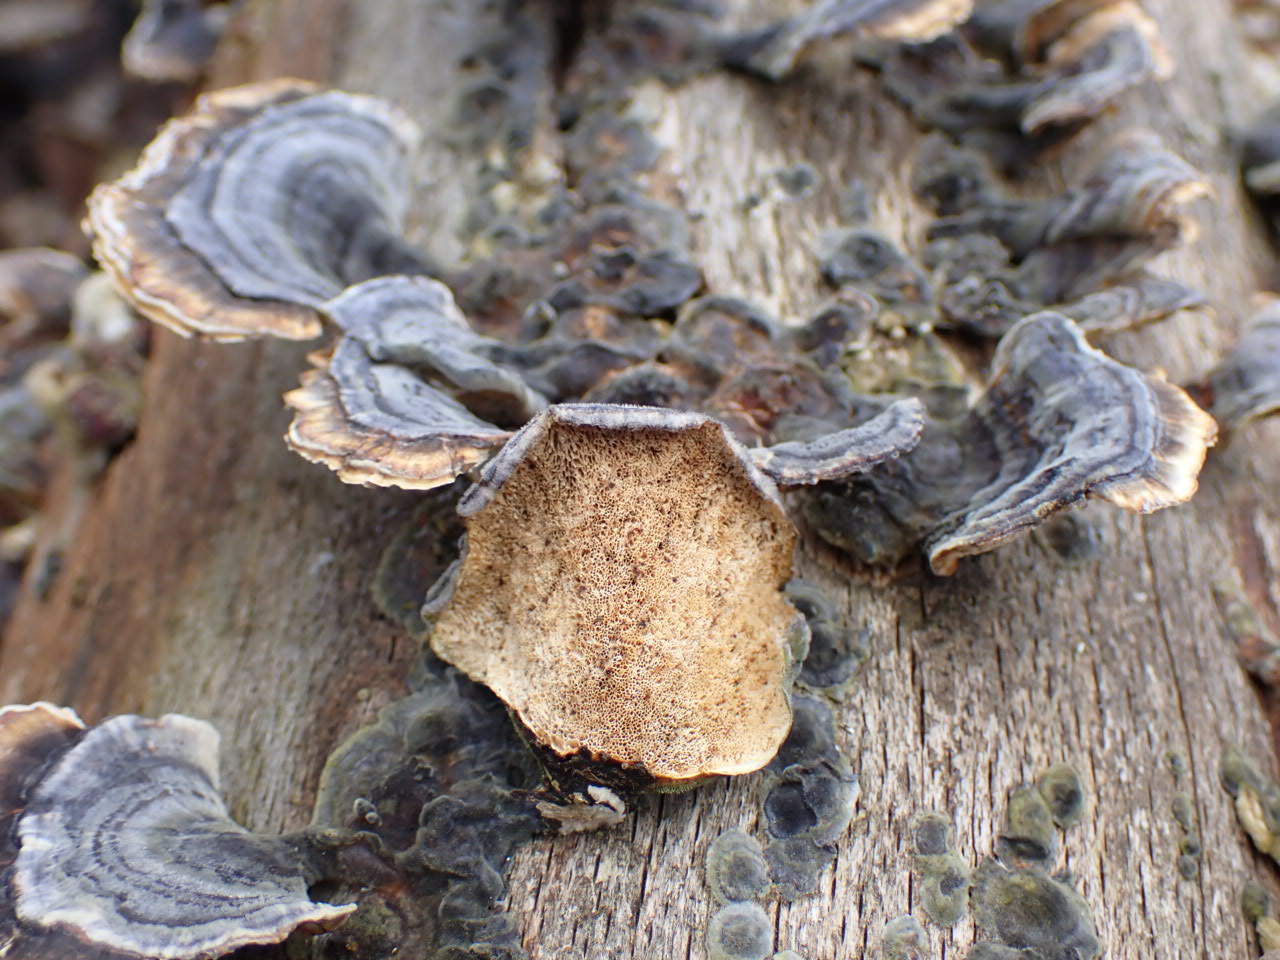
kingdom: Fungi
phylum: Basidiomycota
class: Agaricomycetes
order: Polyporales
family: Polyporaceae
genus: Trametes
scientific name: Trametes versicolor
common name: broget læderporesvamp
